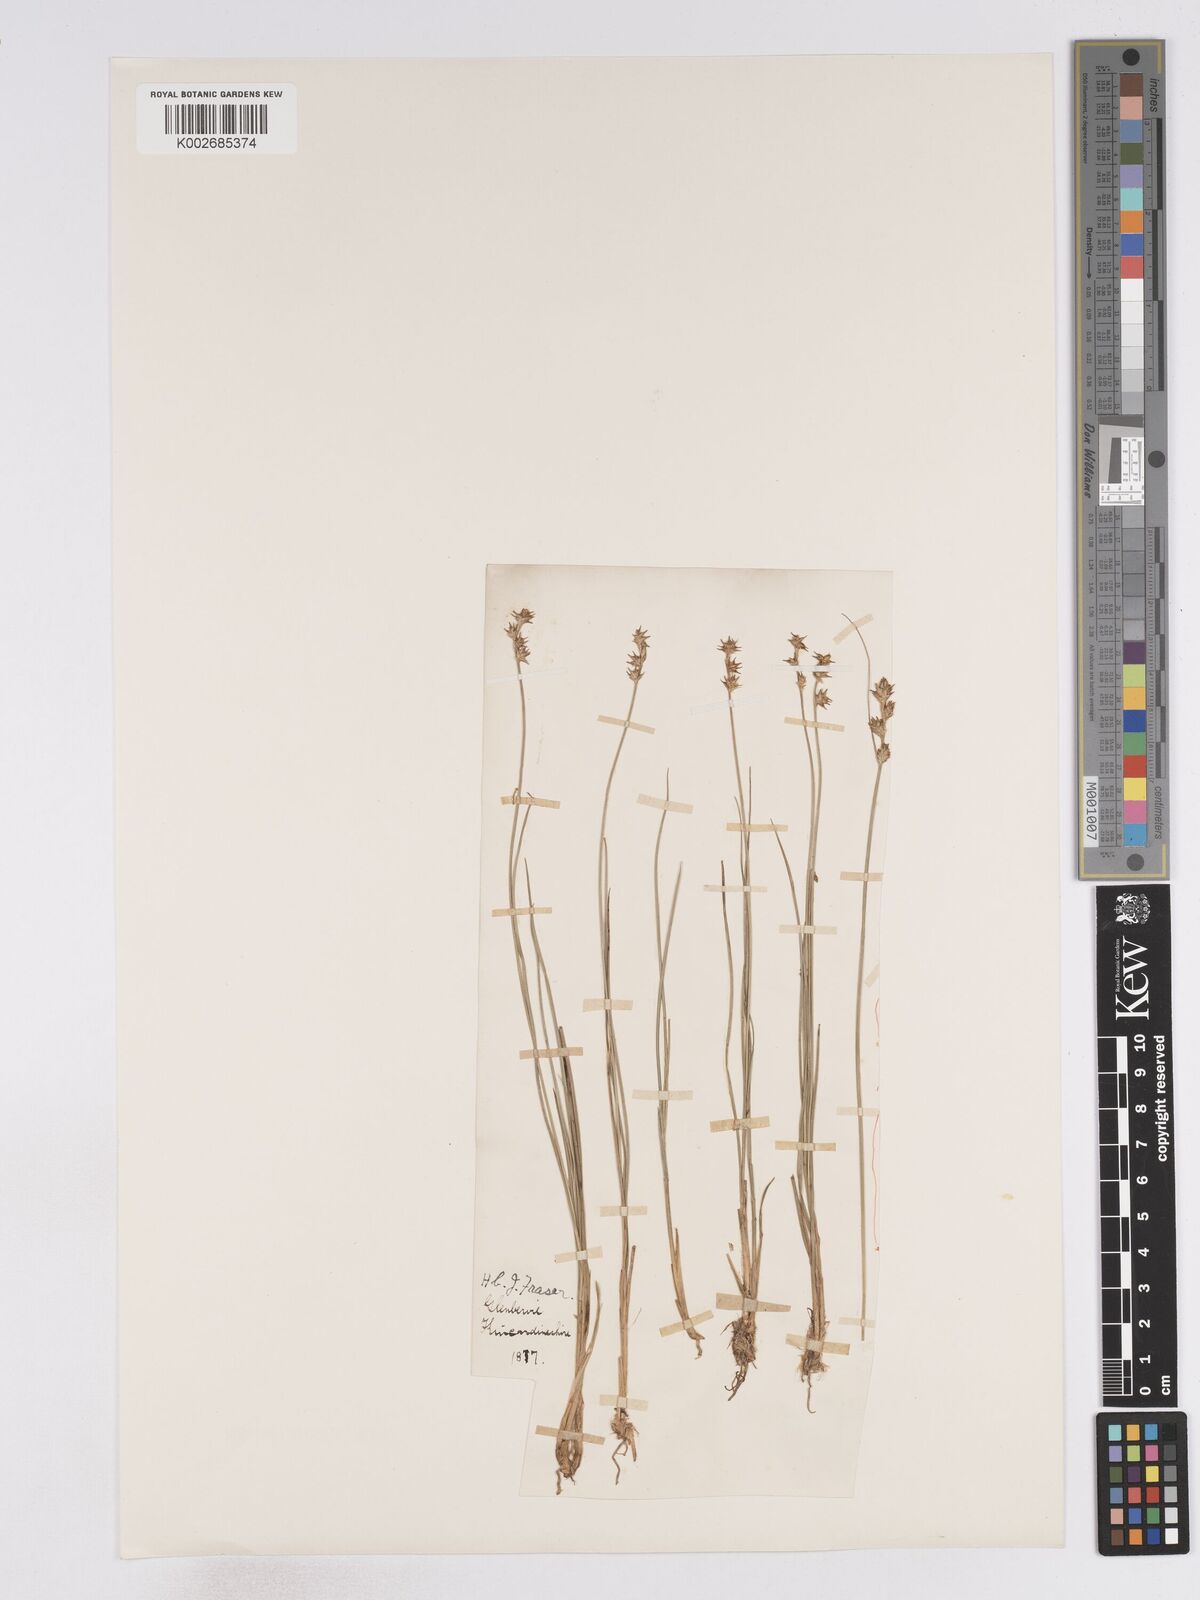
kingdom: Plantae
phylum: Tracheophyta
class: Liliopsida
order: Poales
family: Cyperaceae
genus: Carex
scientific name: Carex echinata
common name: Star sedge
